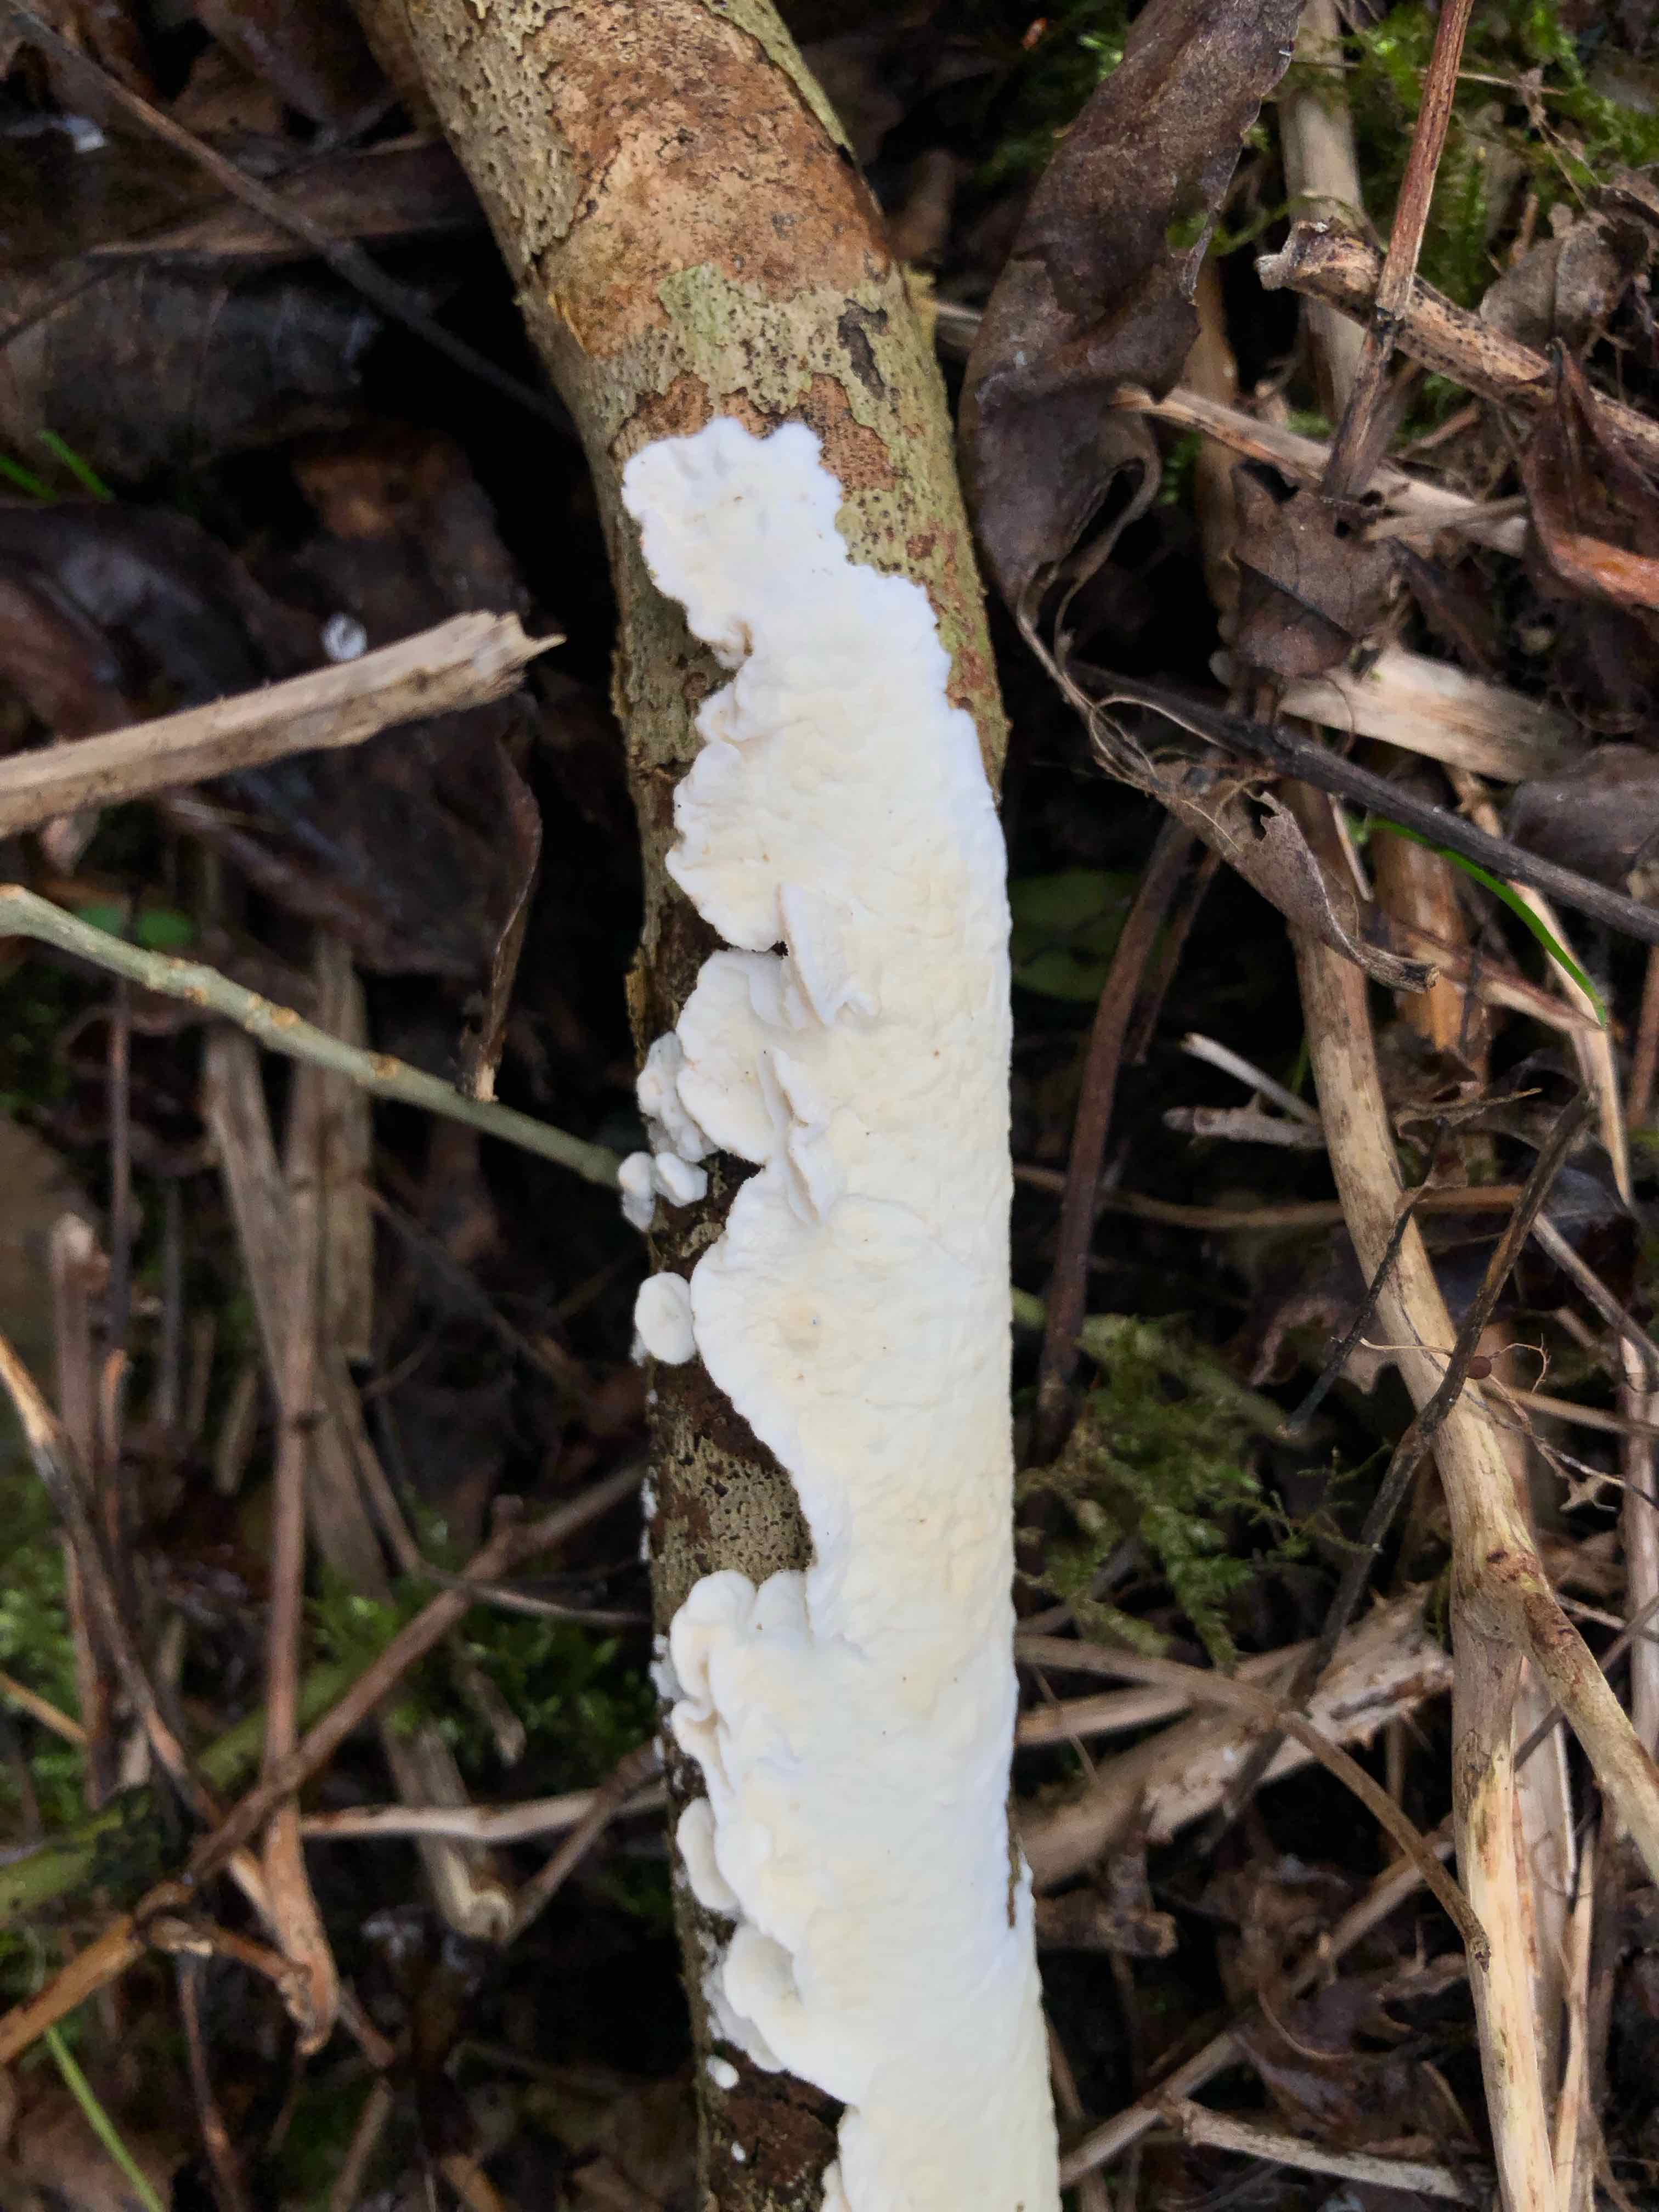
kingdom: Fungi
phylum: Basidiomycota
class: Agaricomycetes
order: Polyporales
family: Irpicaceae
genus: Byssomerulius
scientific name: Byssomerulius corium
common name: læder-åresvamp
